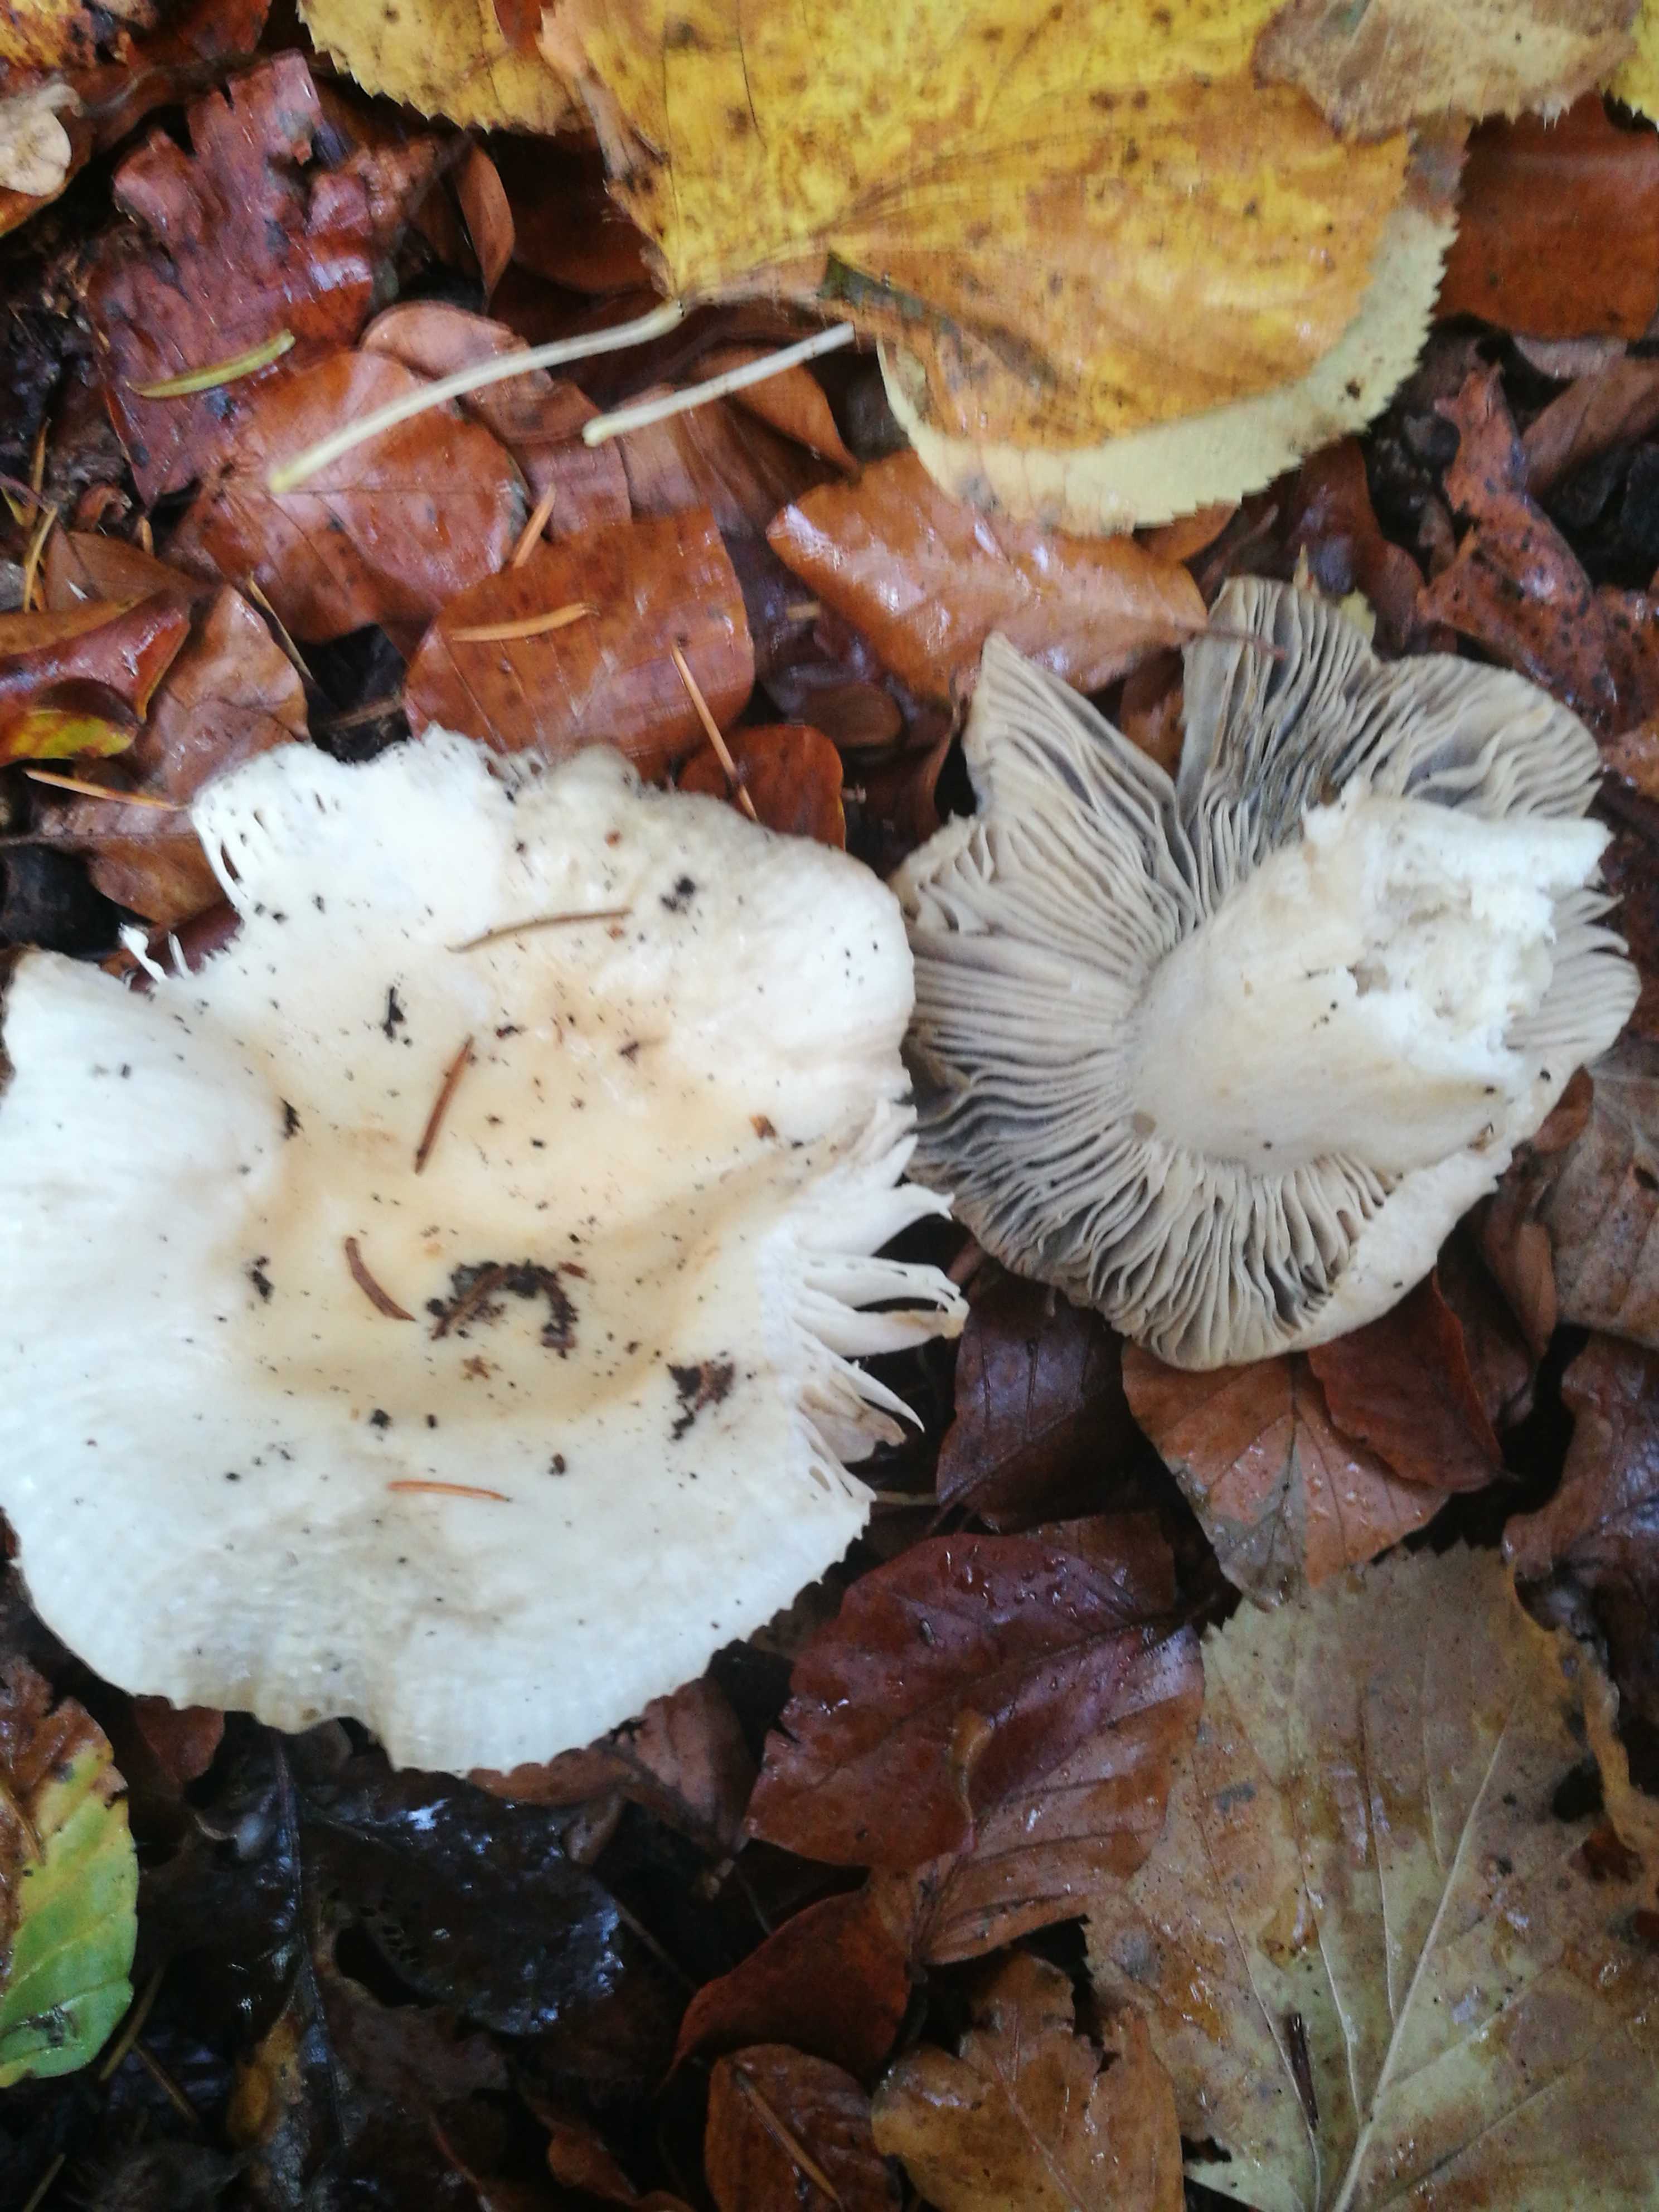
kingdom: Fungi
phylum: Basidiomycota
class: Agaricomycetes
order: Russulales
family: Russulaceae
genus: Russula
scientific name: Russula
